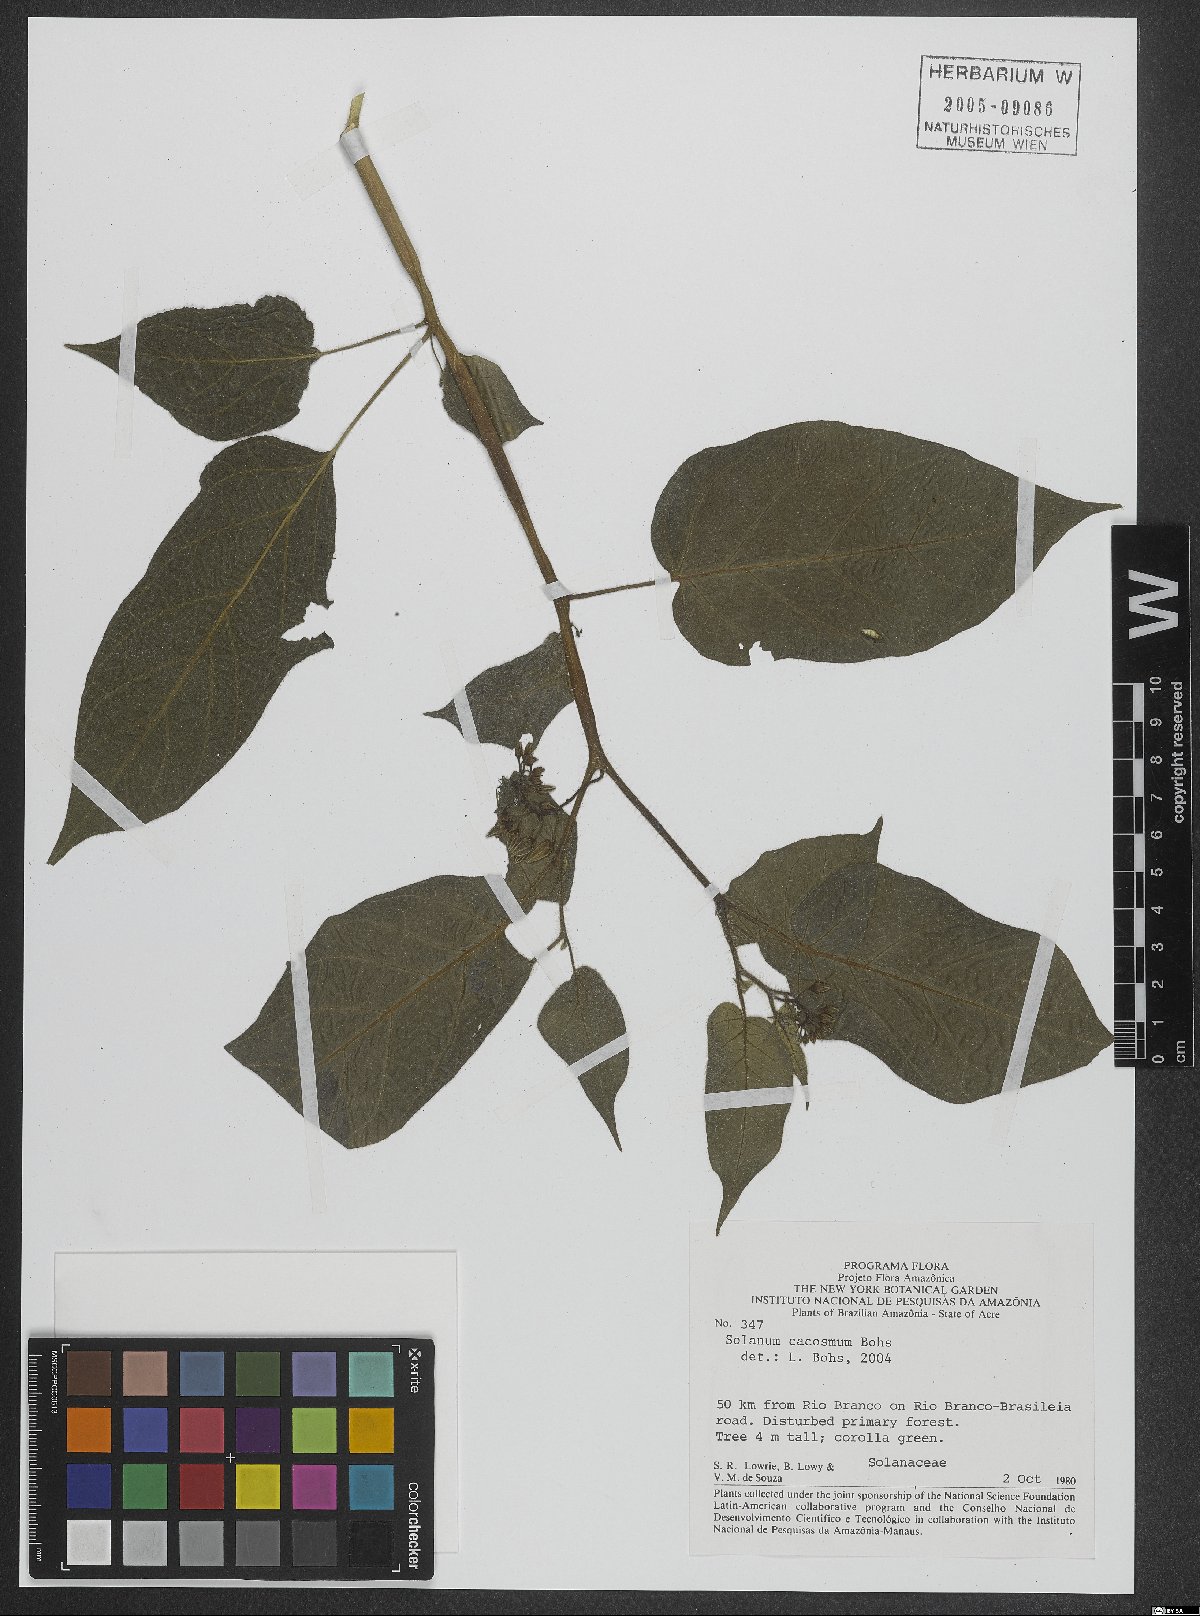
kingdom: Plantae
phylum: Tracheophyta
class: Magnoliopsida
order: Solanales
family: Solanaceae
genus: Solanum
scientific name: Solanum cacosmum
